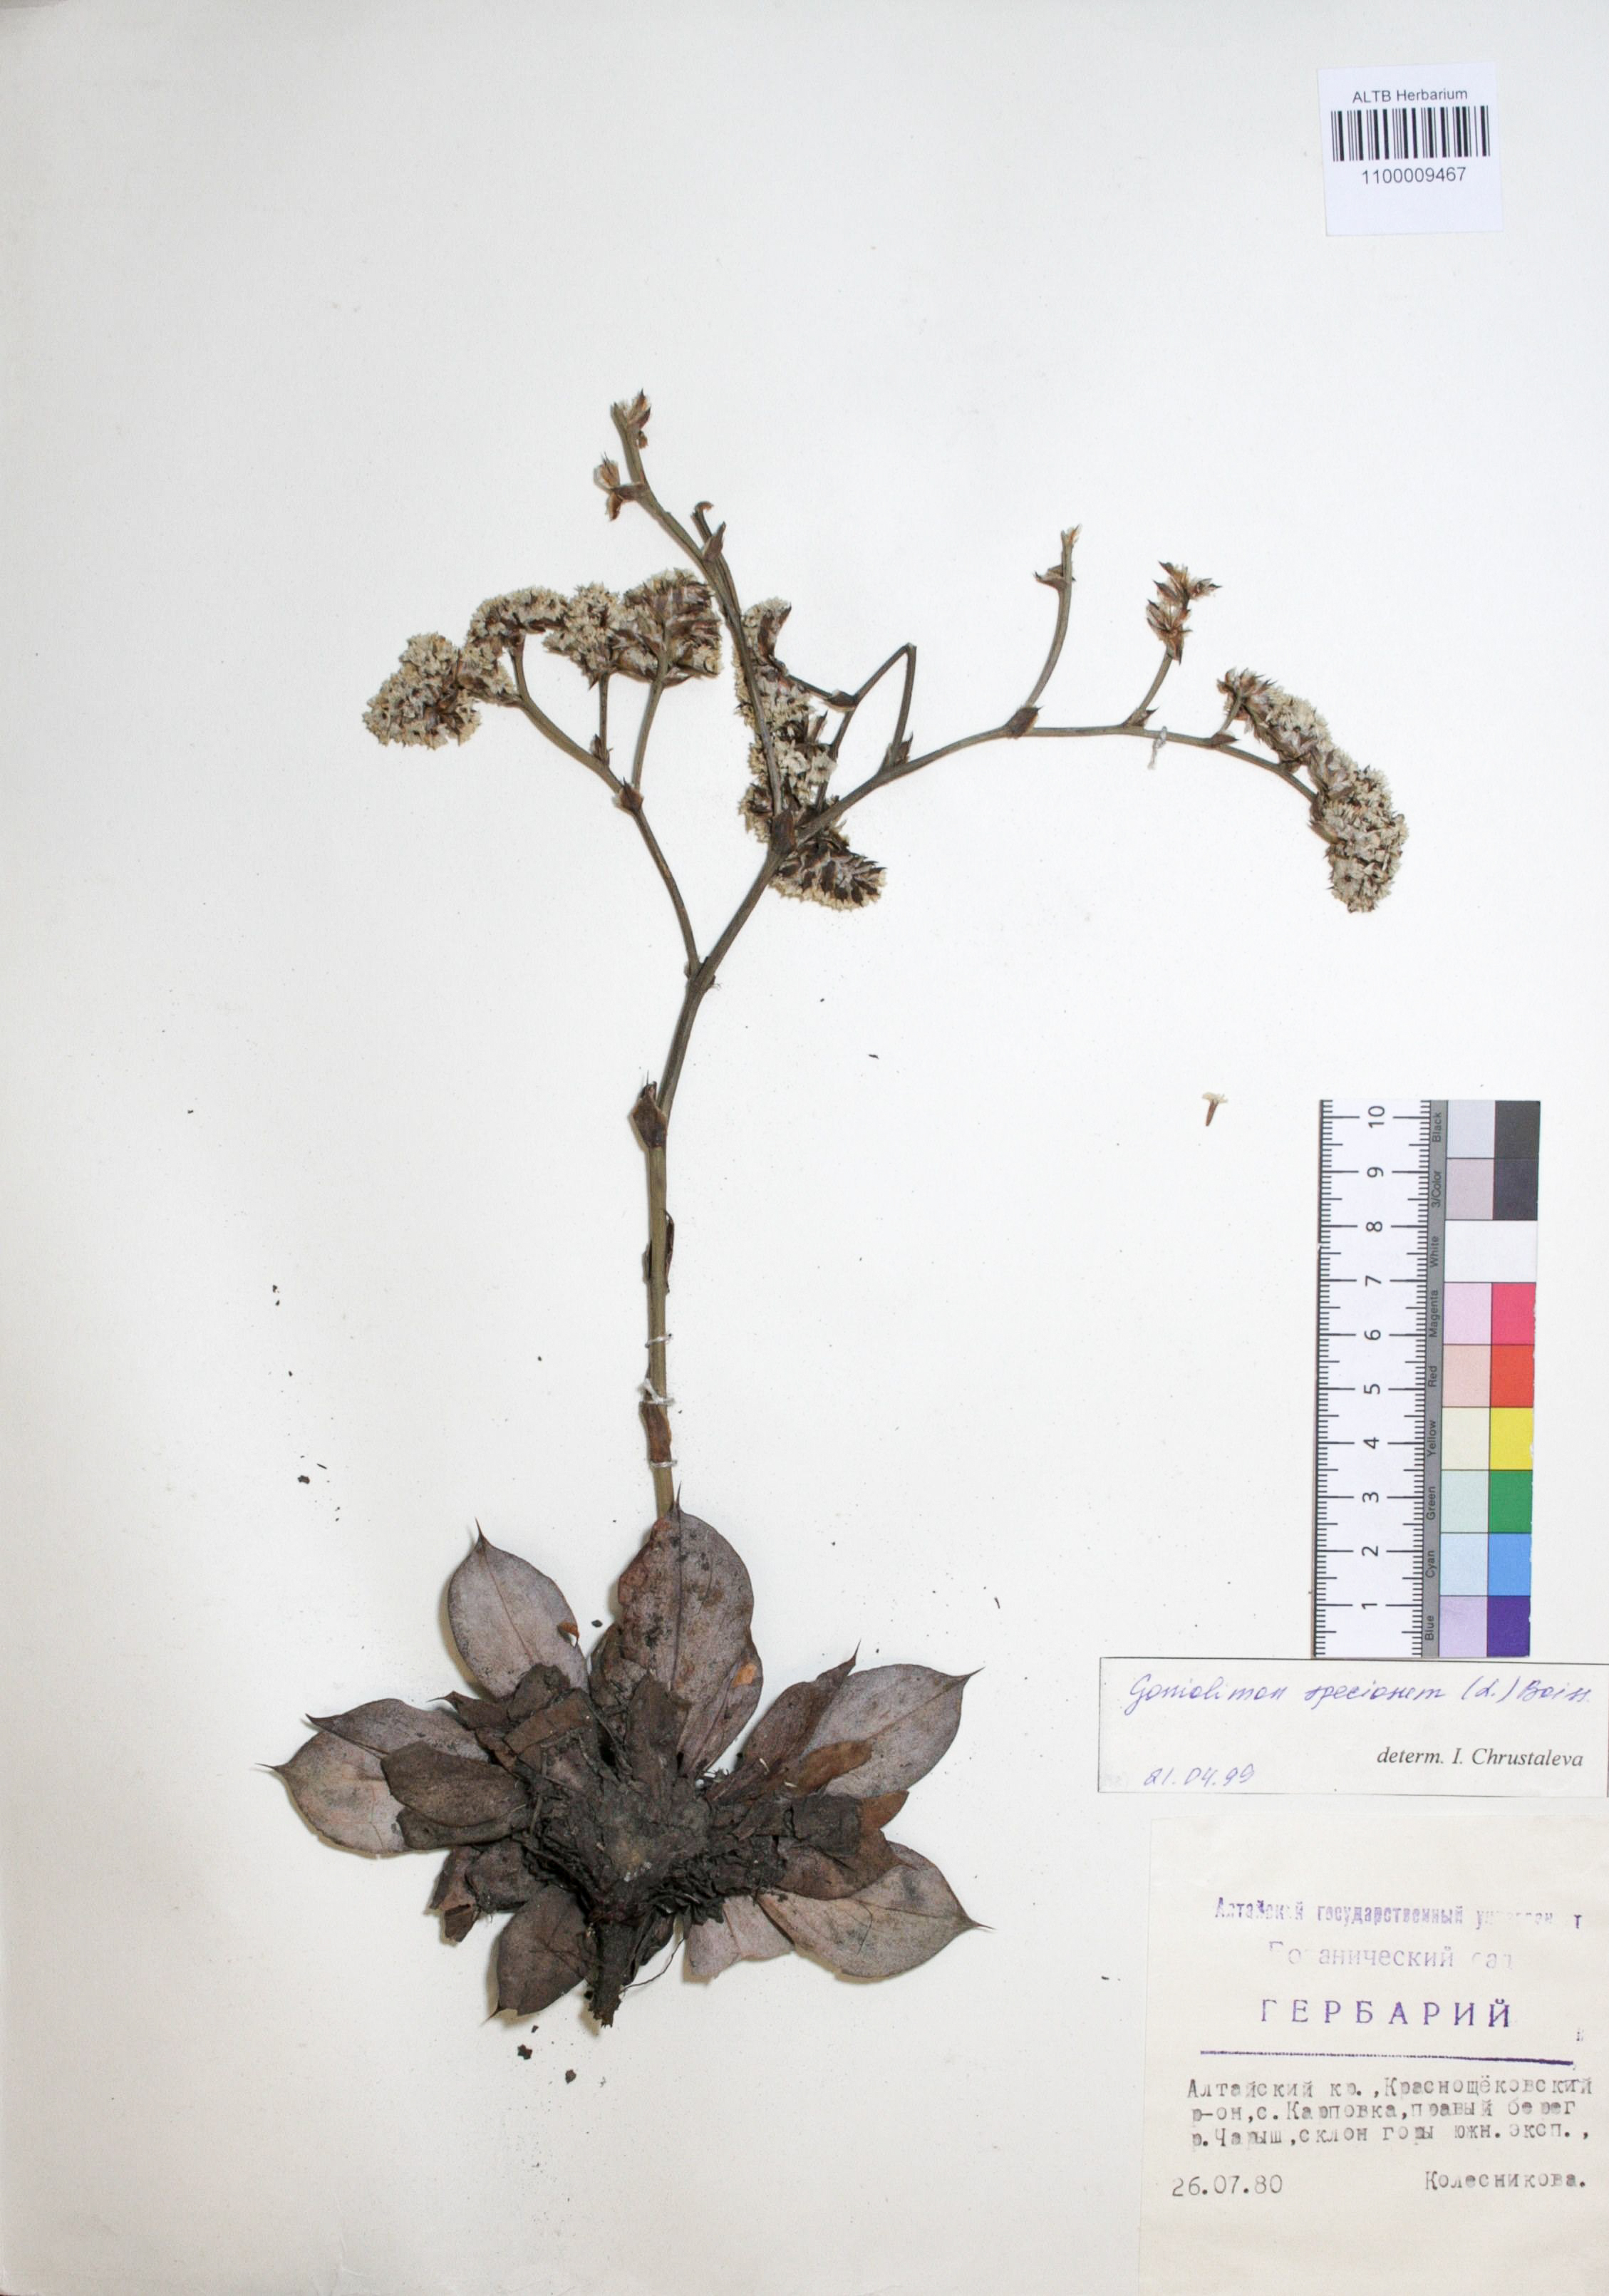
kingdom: Plantae
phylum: Tracheophyta
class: Magnoliopsida
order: Caryophyllales
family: Plumbaginaceae
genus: Goniolimon
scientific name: Goniolimon speciosum
